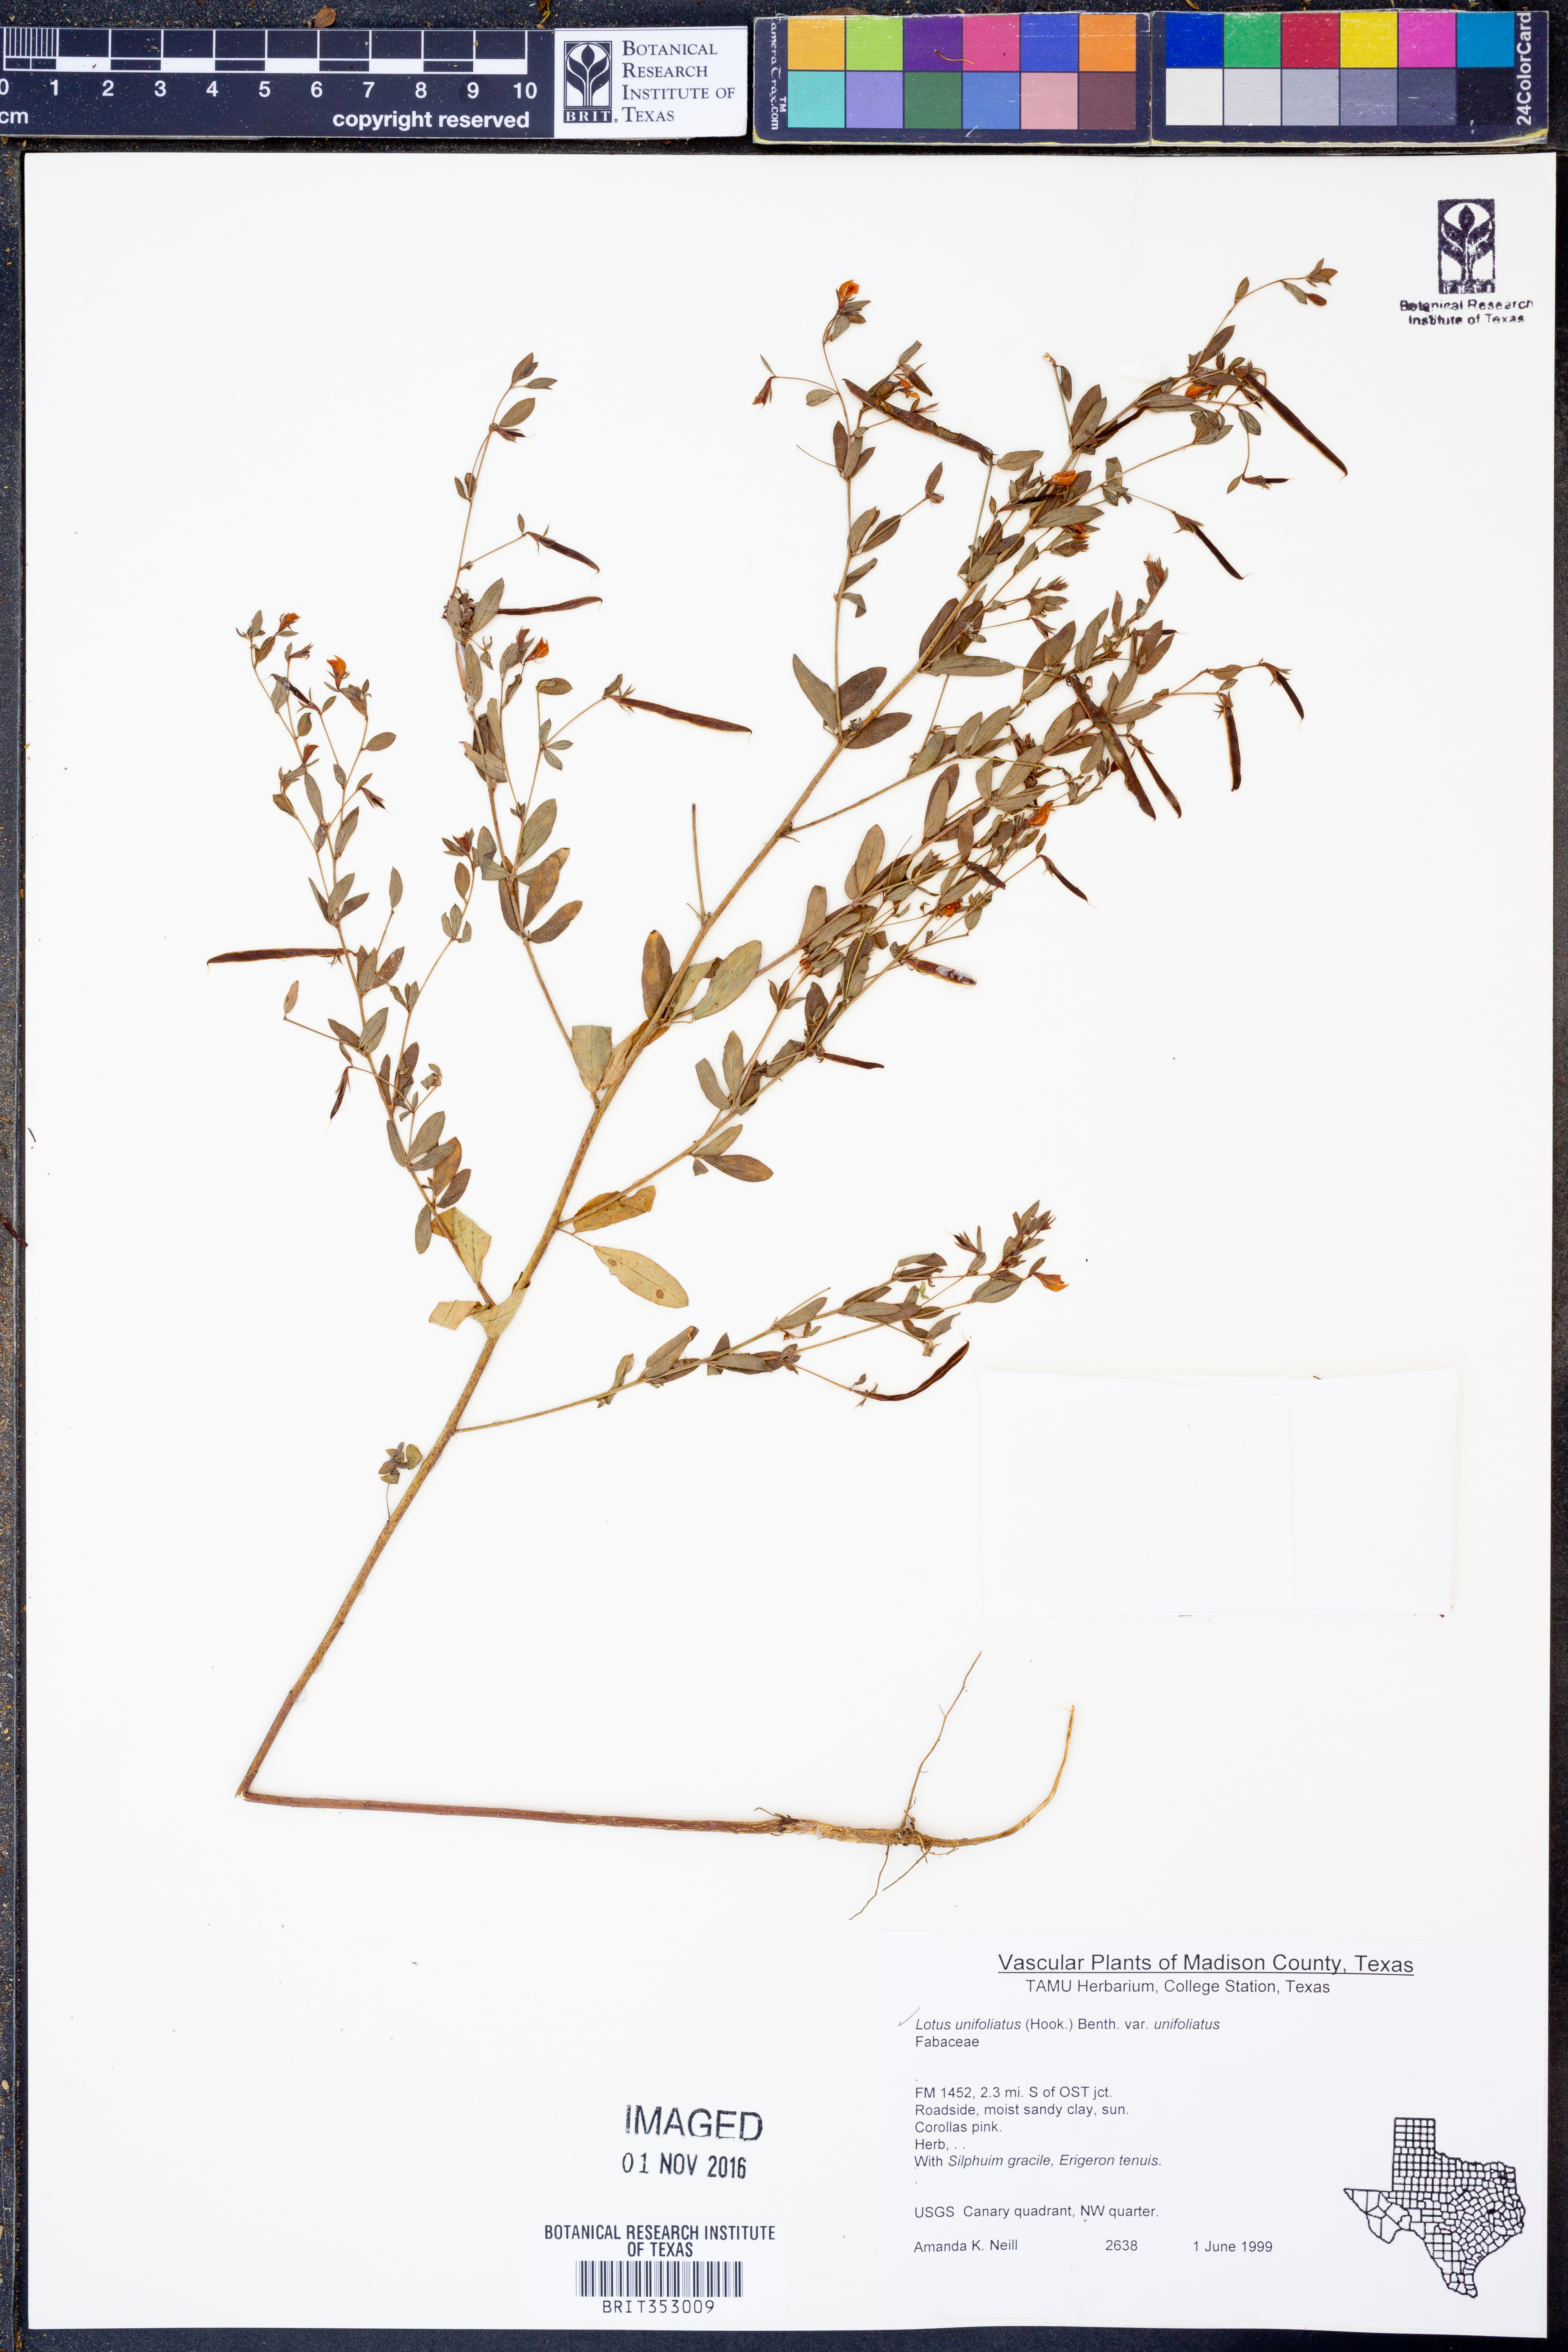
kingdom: Plantae
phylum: Tracheophyta
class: Magnoliopsida
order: Fabales
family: Fabaceae
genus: Lotus
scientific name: Lotus unifoliatus
